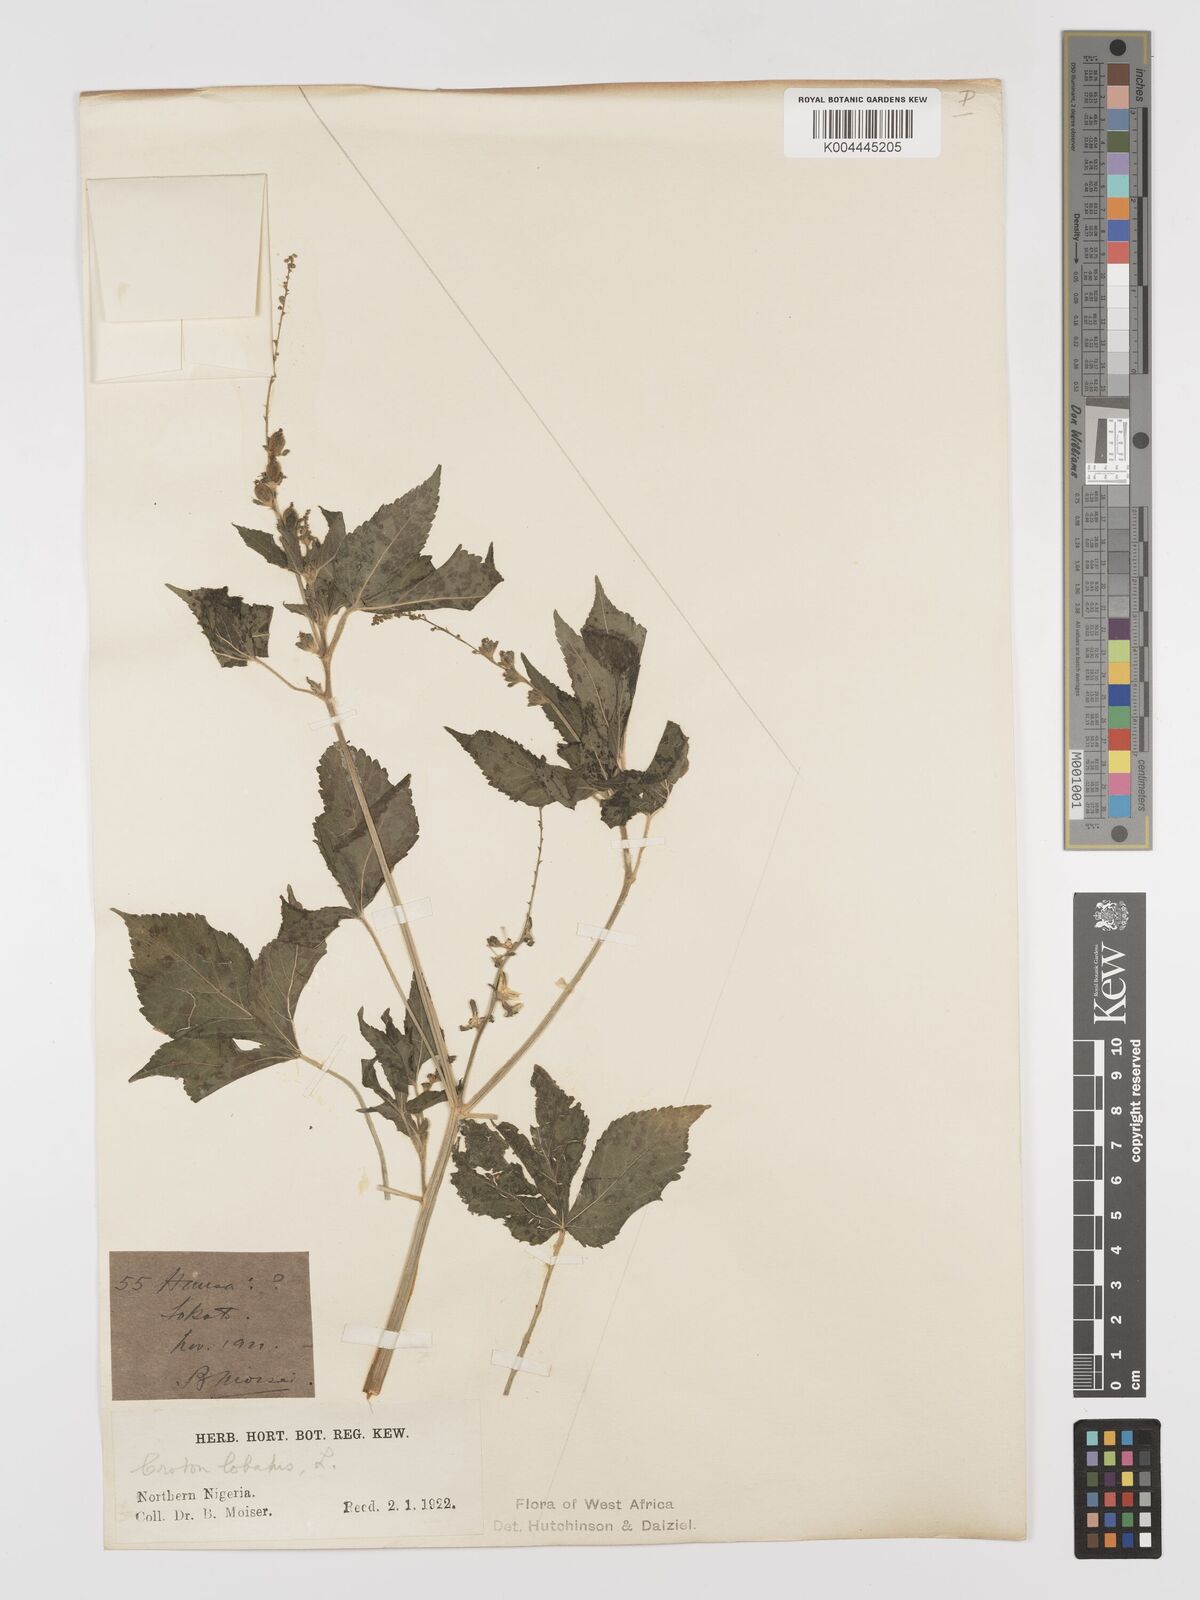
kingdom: Plantae
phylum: Tracheophyta
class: Magnoliopsida
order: Malpighiales
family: Euphorbiaceae
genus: Astraea
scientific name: Astraea lobata
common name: Lobed croton
